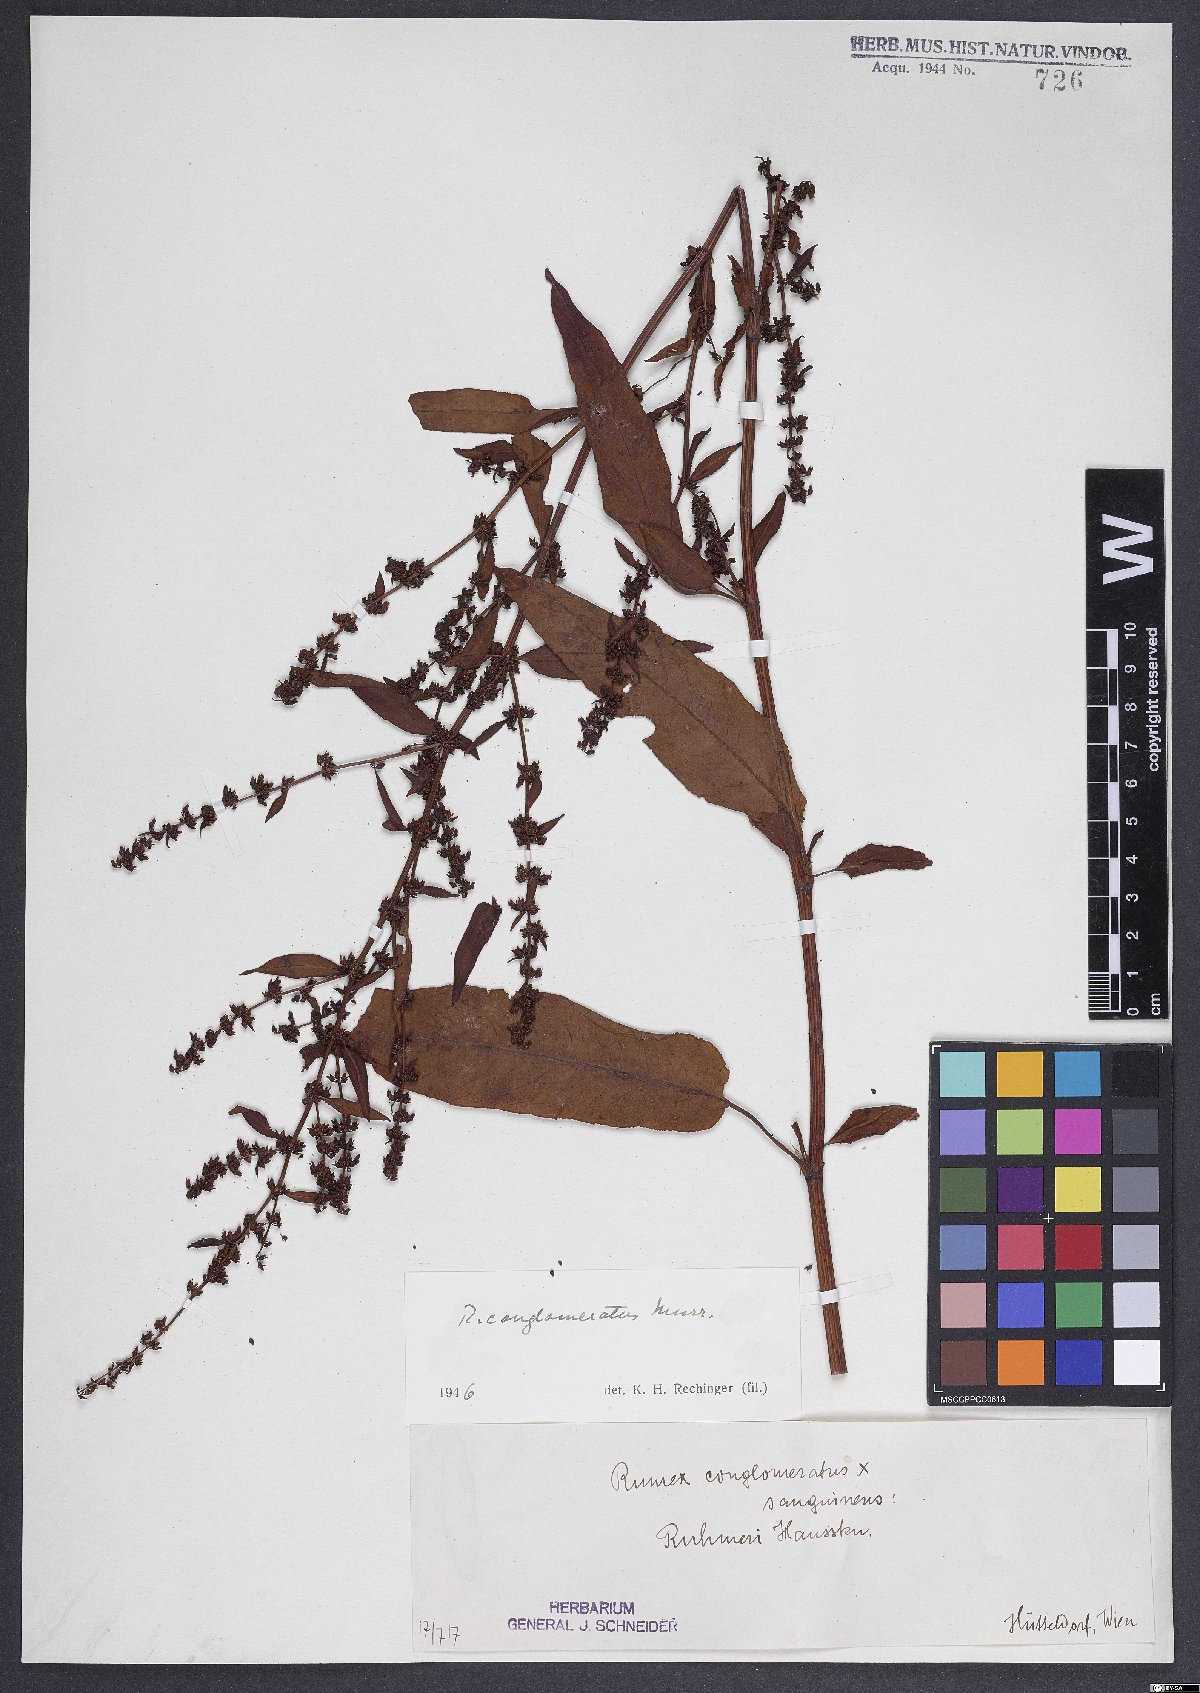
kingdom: Plantae
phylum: Tracheophyta
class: Magnoliopsida
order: Caryophyllales
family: Polygonaceae
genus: Rumex
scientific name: Rumex conglomeratus
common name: Clustered dock
